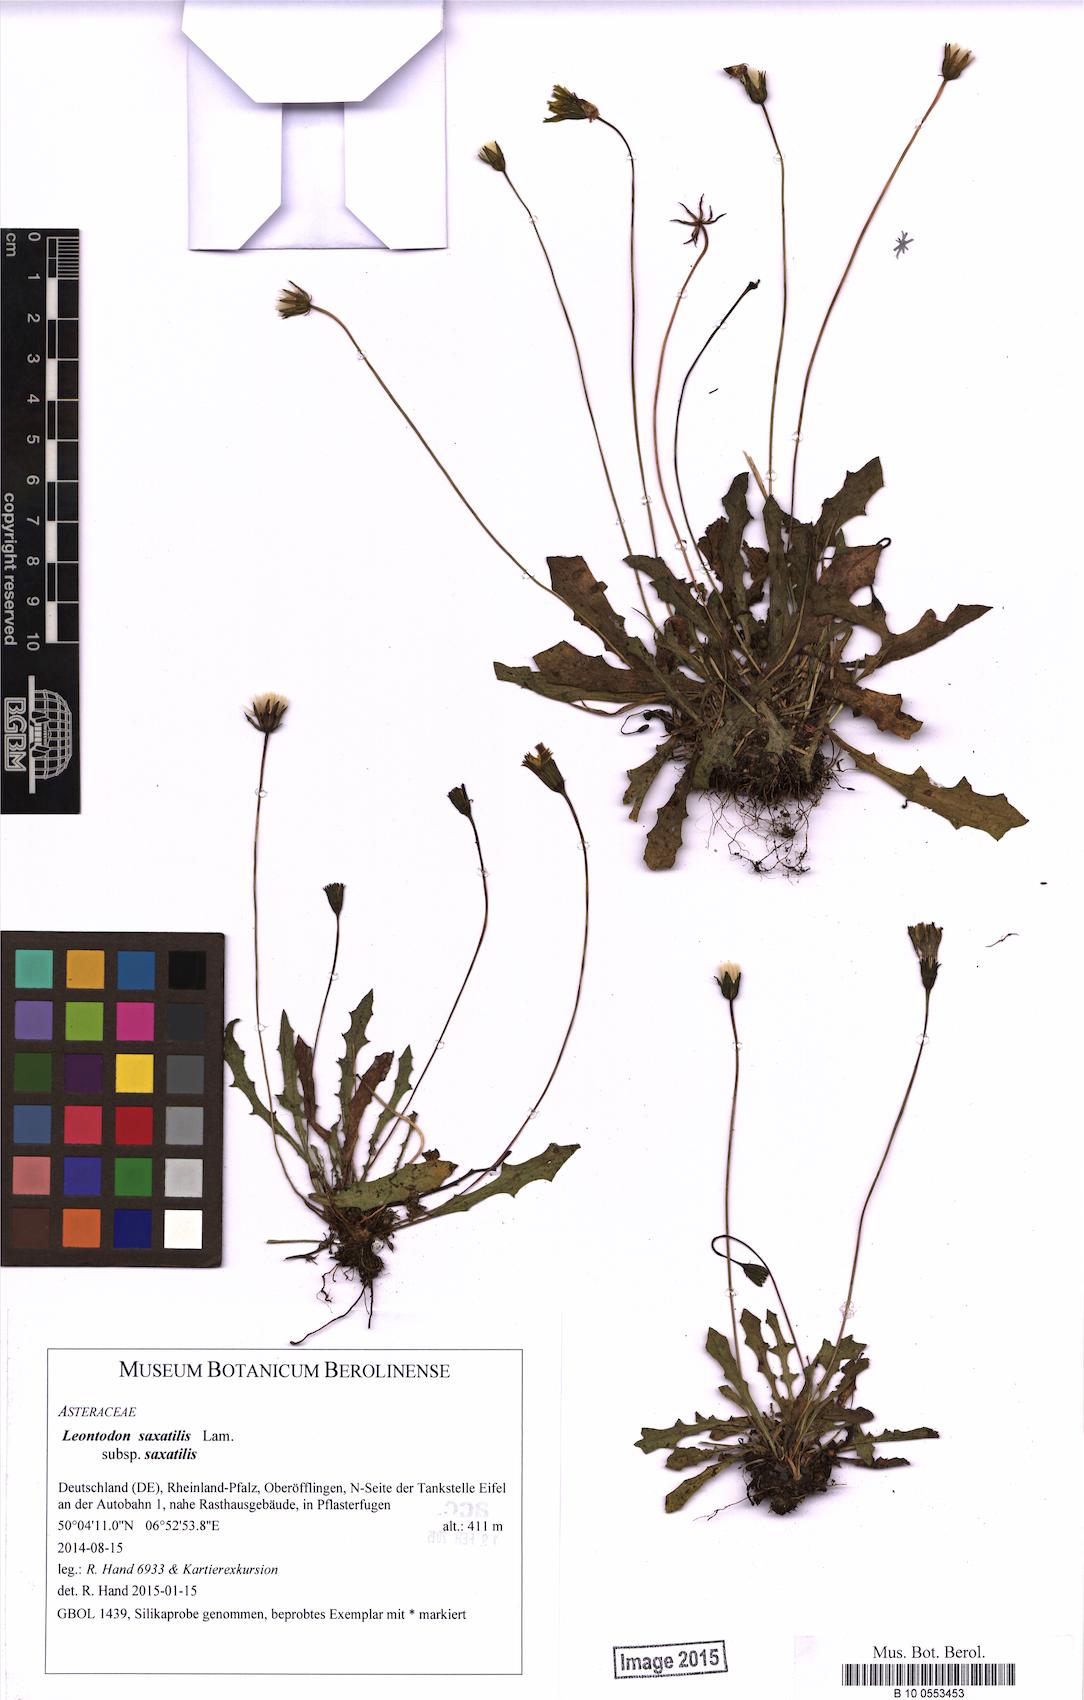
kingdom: Plantae
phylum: Tracheophyta
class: Magnoliopsida
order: Asterales
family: Asteraceae
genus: Thrincia
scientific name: Thrincia saxatilis
